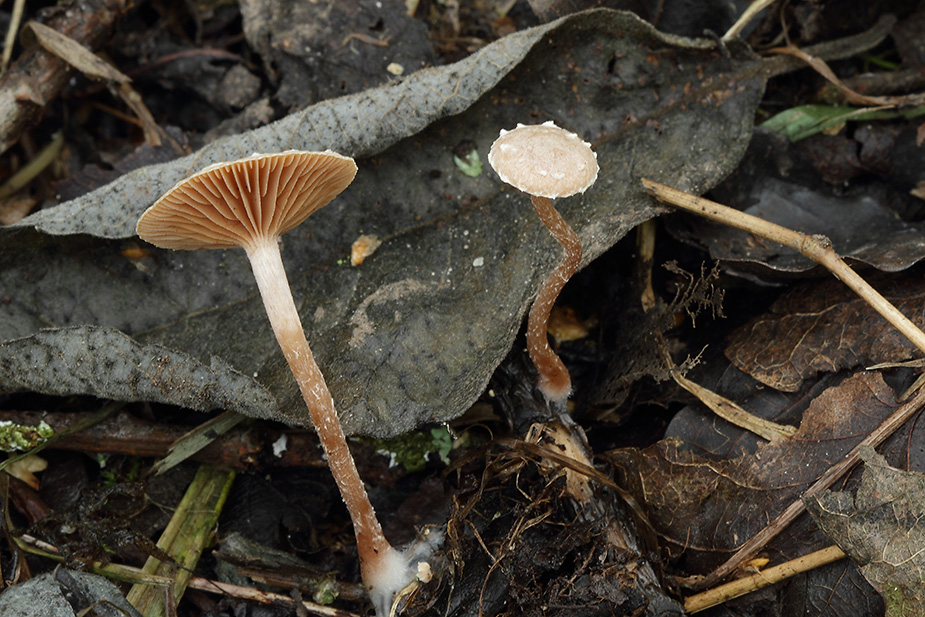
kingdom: Fungi
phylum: Basidiomycota
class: Agaricomycetes
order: Agaricales
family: Tubariaceae
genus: Tubaria
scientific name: Tubaria conspersa
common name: bleg fnughat
